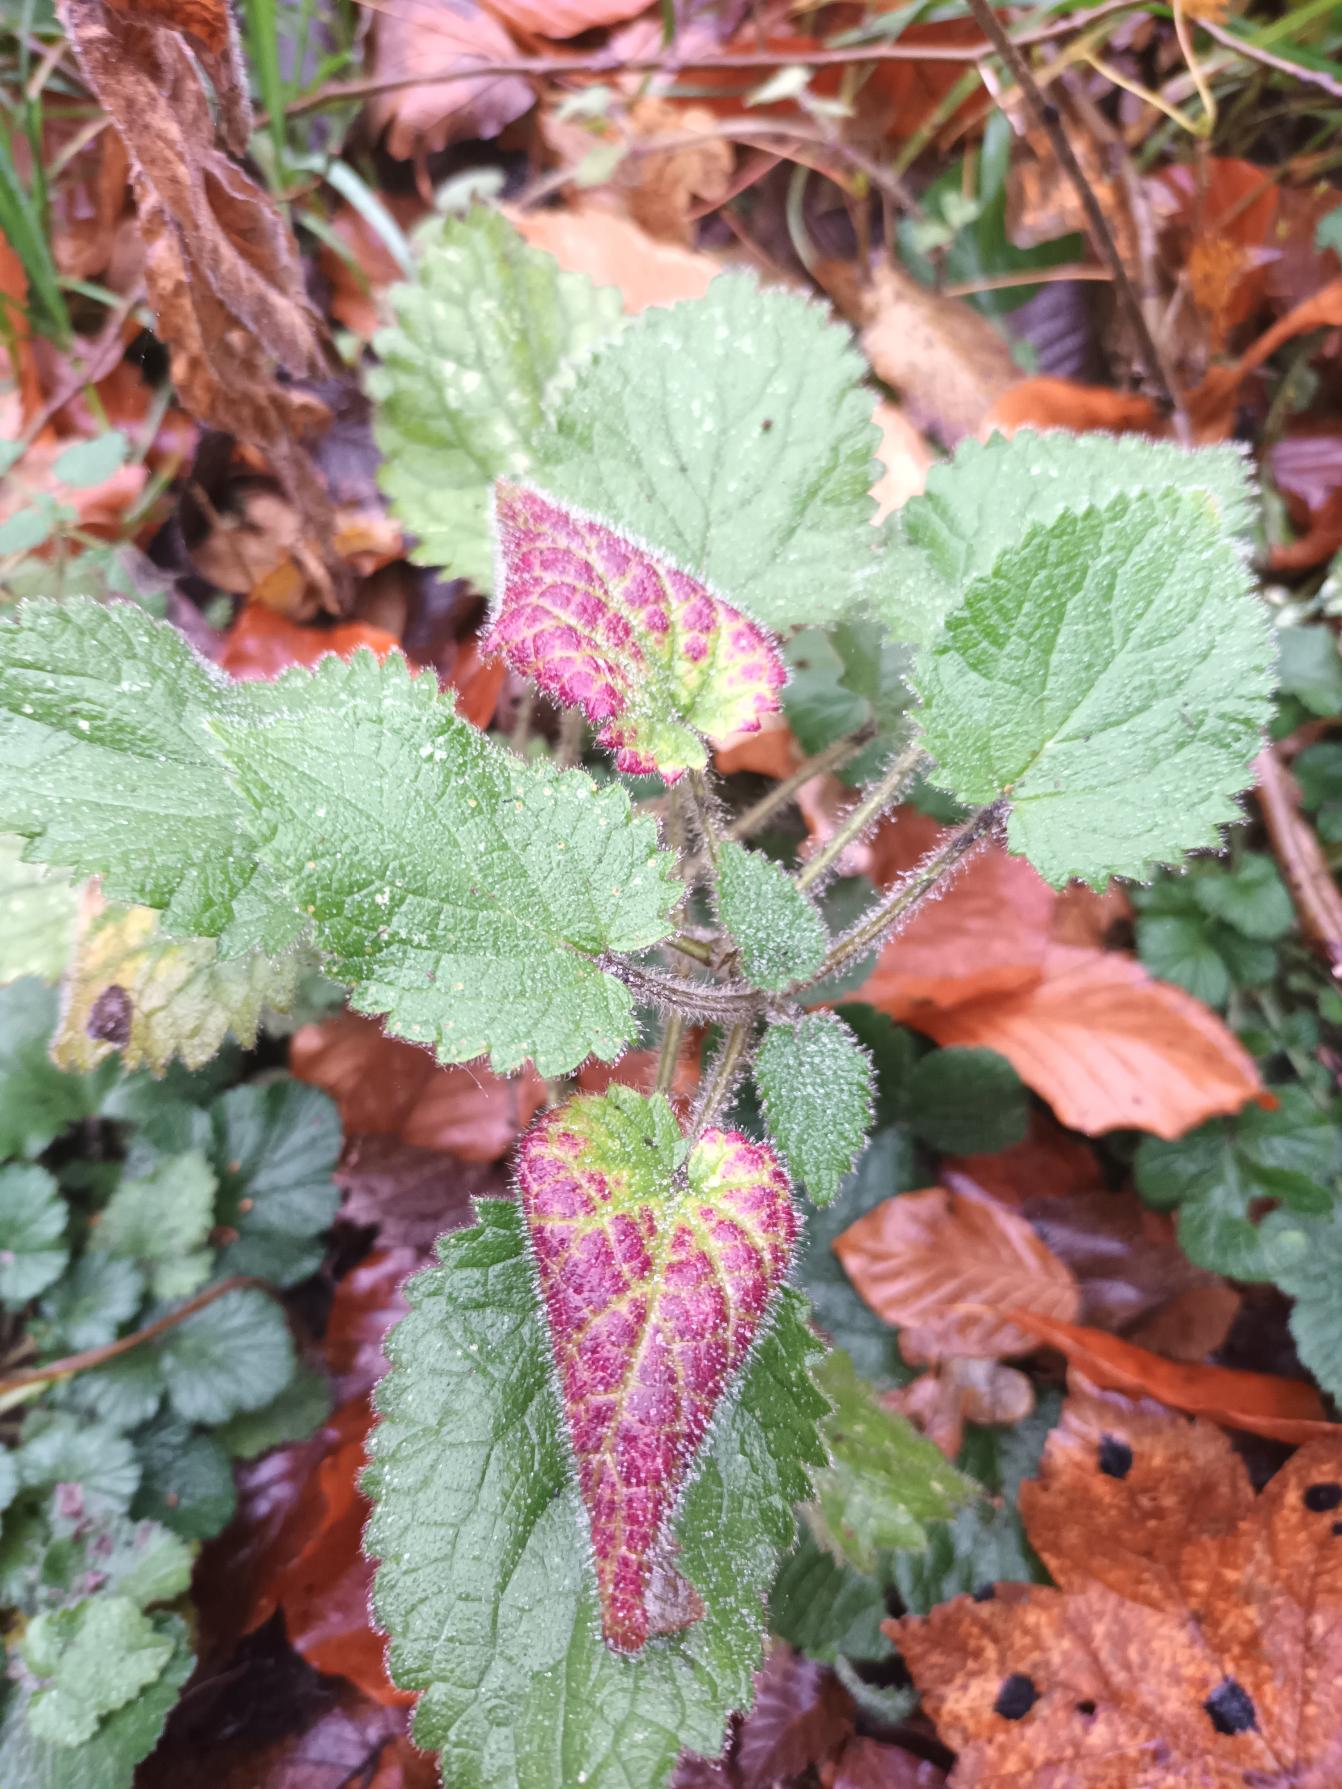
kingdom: Plantae
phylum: Tracheophyta
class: Magnoliopsida
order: Lamiales
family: Lamiaceae
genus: Stachys
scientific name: Stachys sylvatica
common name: Skov-galtetand
